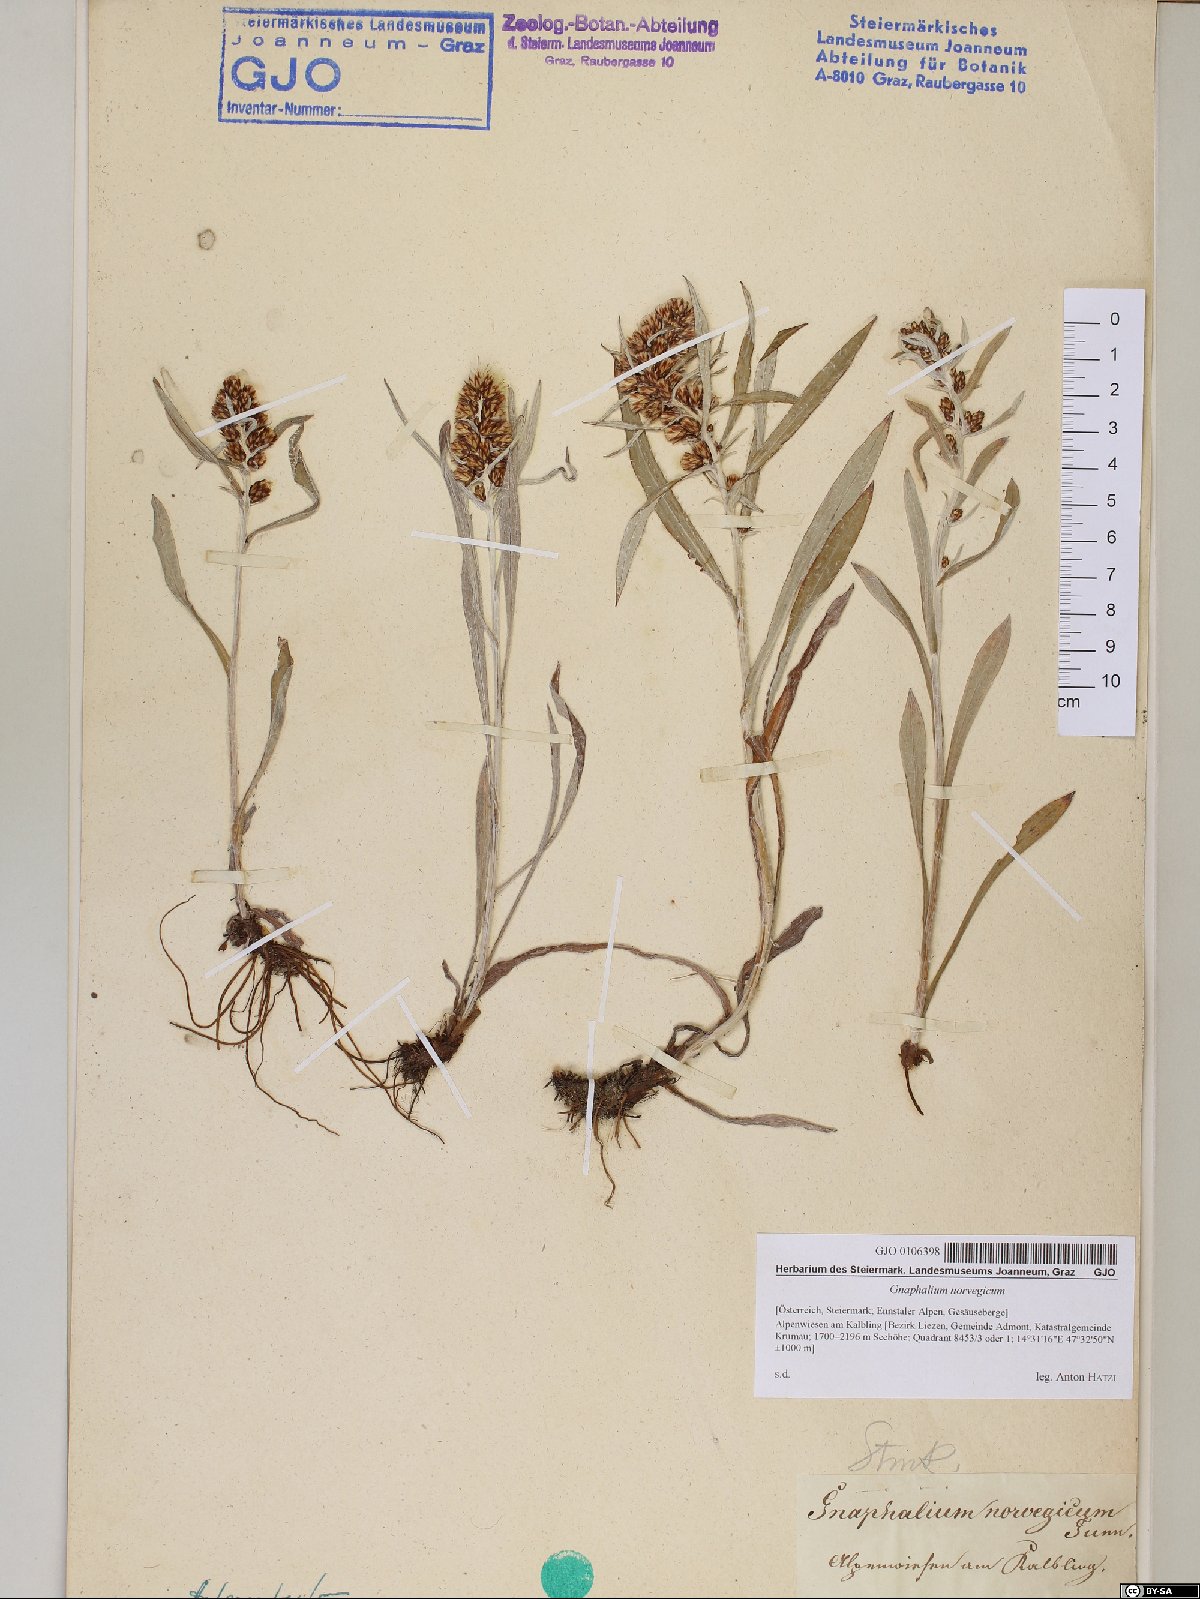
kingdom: Plantae
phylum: Tracheophyta
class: Magnoliopsida
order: Asterales
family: Asteraceae
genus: Omalotheca
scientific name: Omalotheca norvegica
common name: Norwegian arctic-cudweed
